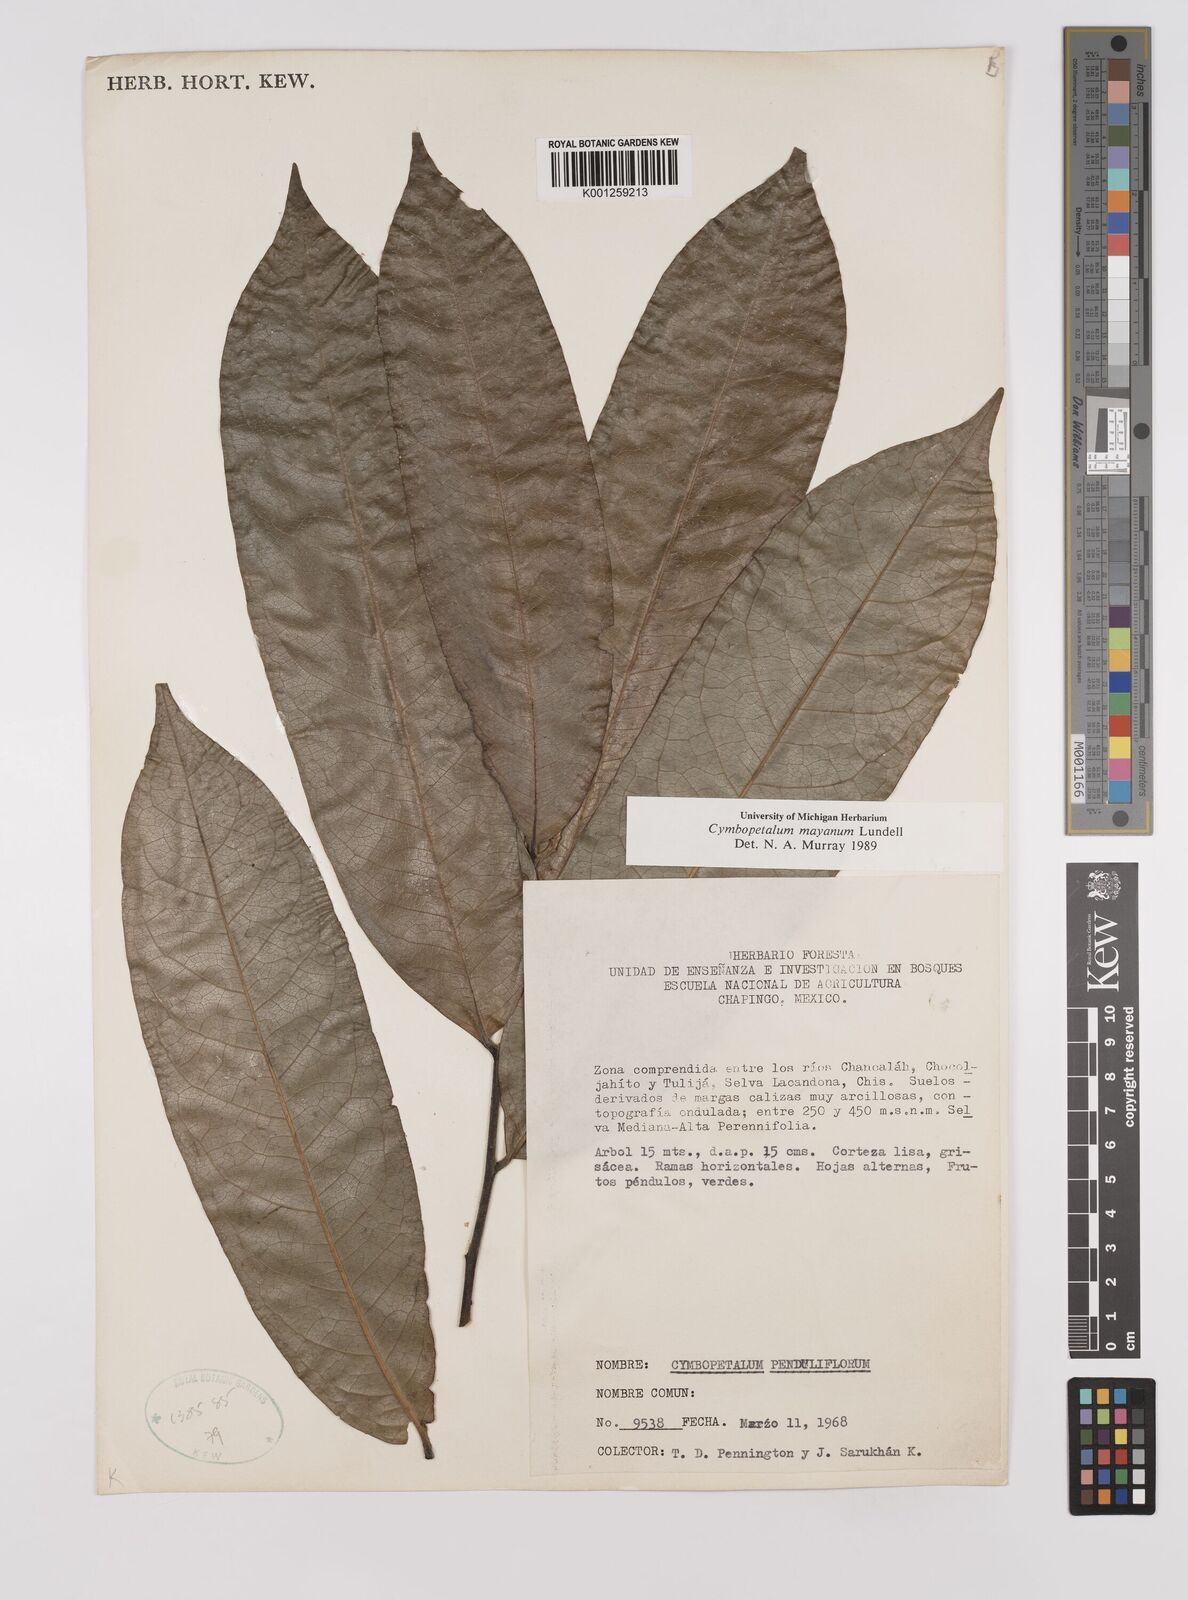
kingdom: Plantae
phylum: Tracheophyta
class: Magnoliopsida
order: Magnoliales
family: Annonaceae
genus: Cymbopetalum
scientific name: Cymbopetalum mayanum
